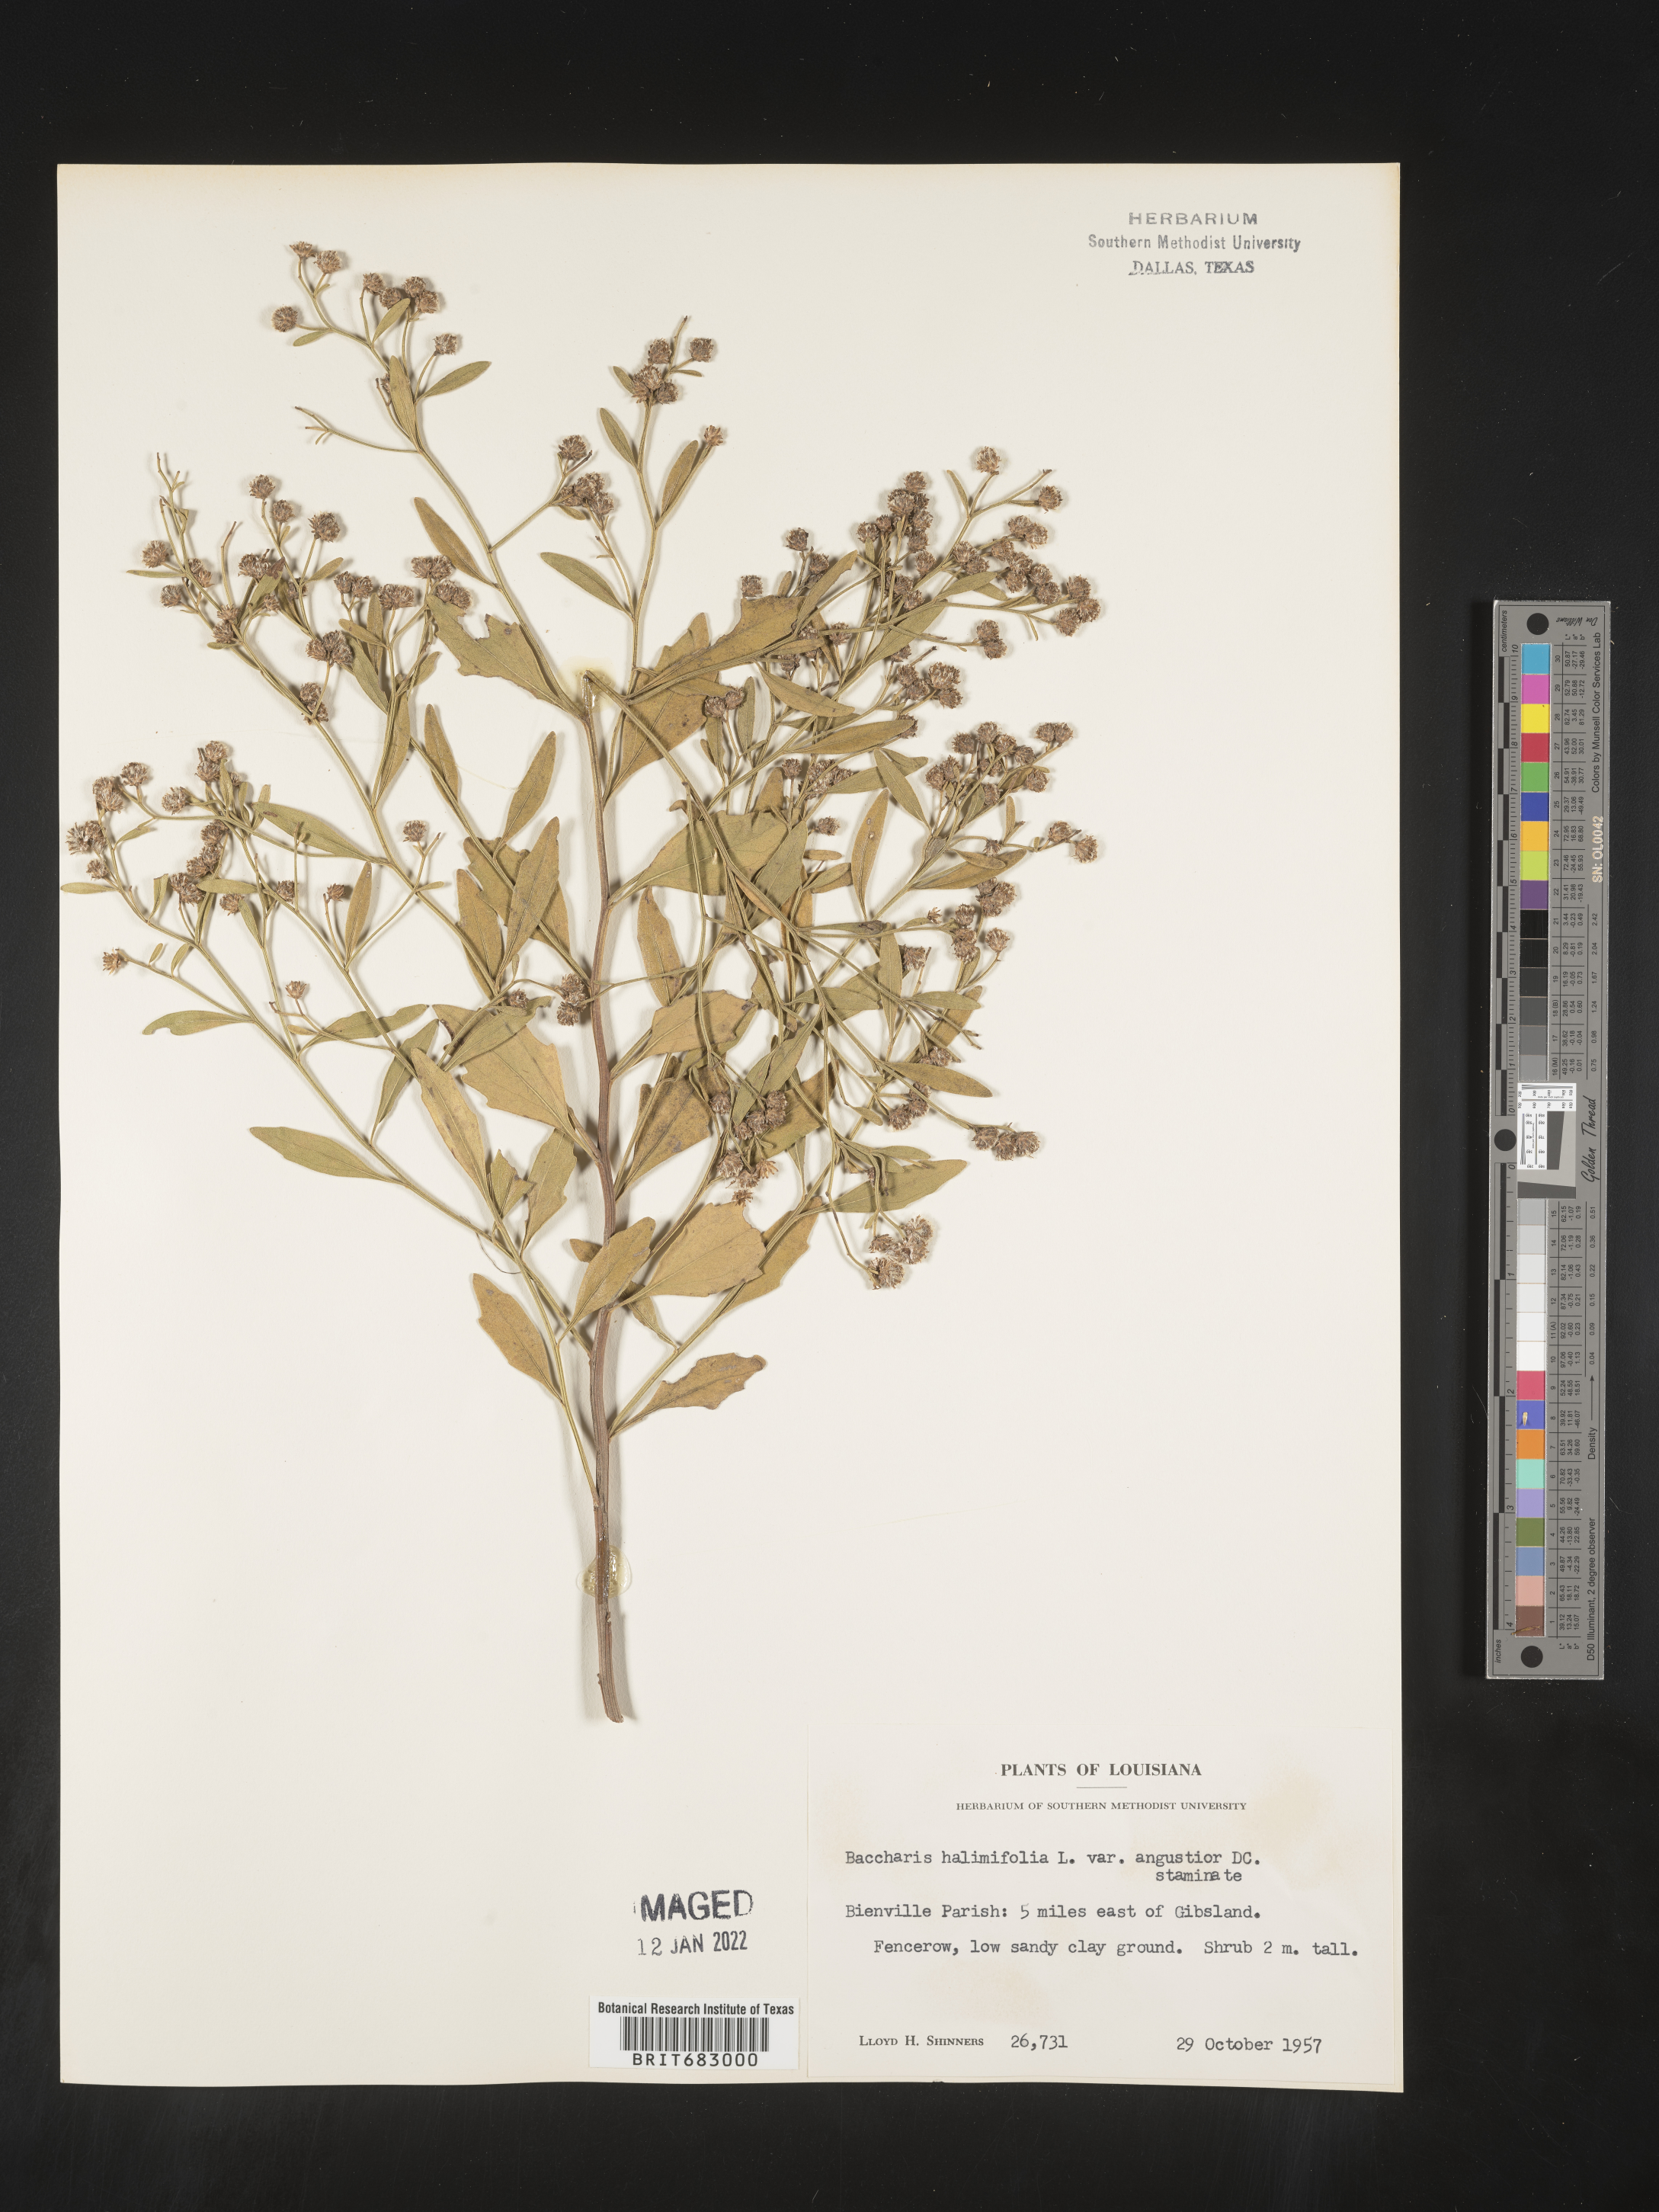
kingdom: Plantae
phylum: Tracheophyta
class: Magnoliopsida
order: Asterales
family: Asteraceae
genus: Nidorella
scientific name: Nidorella ivifolia
